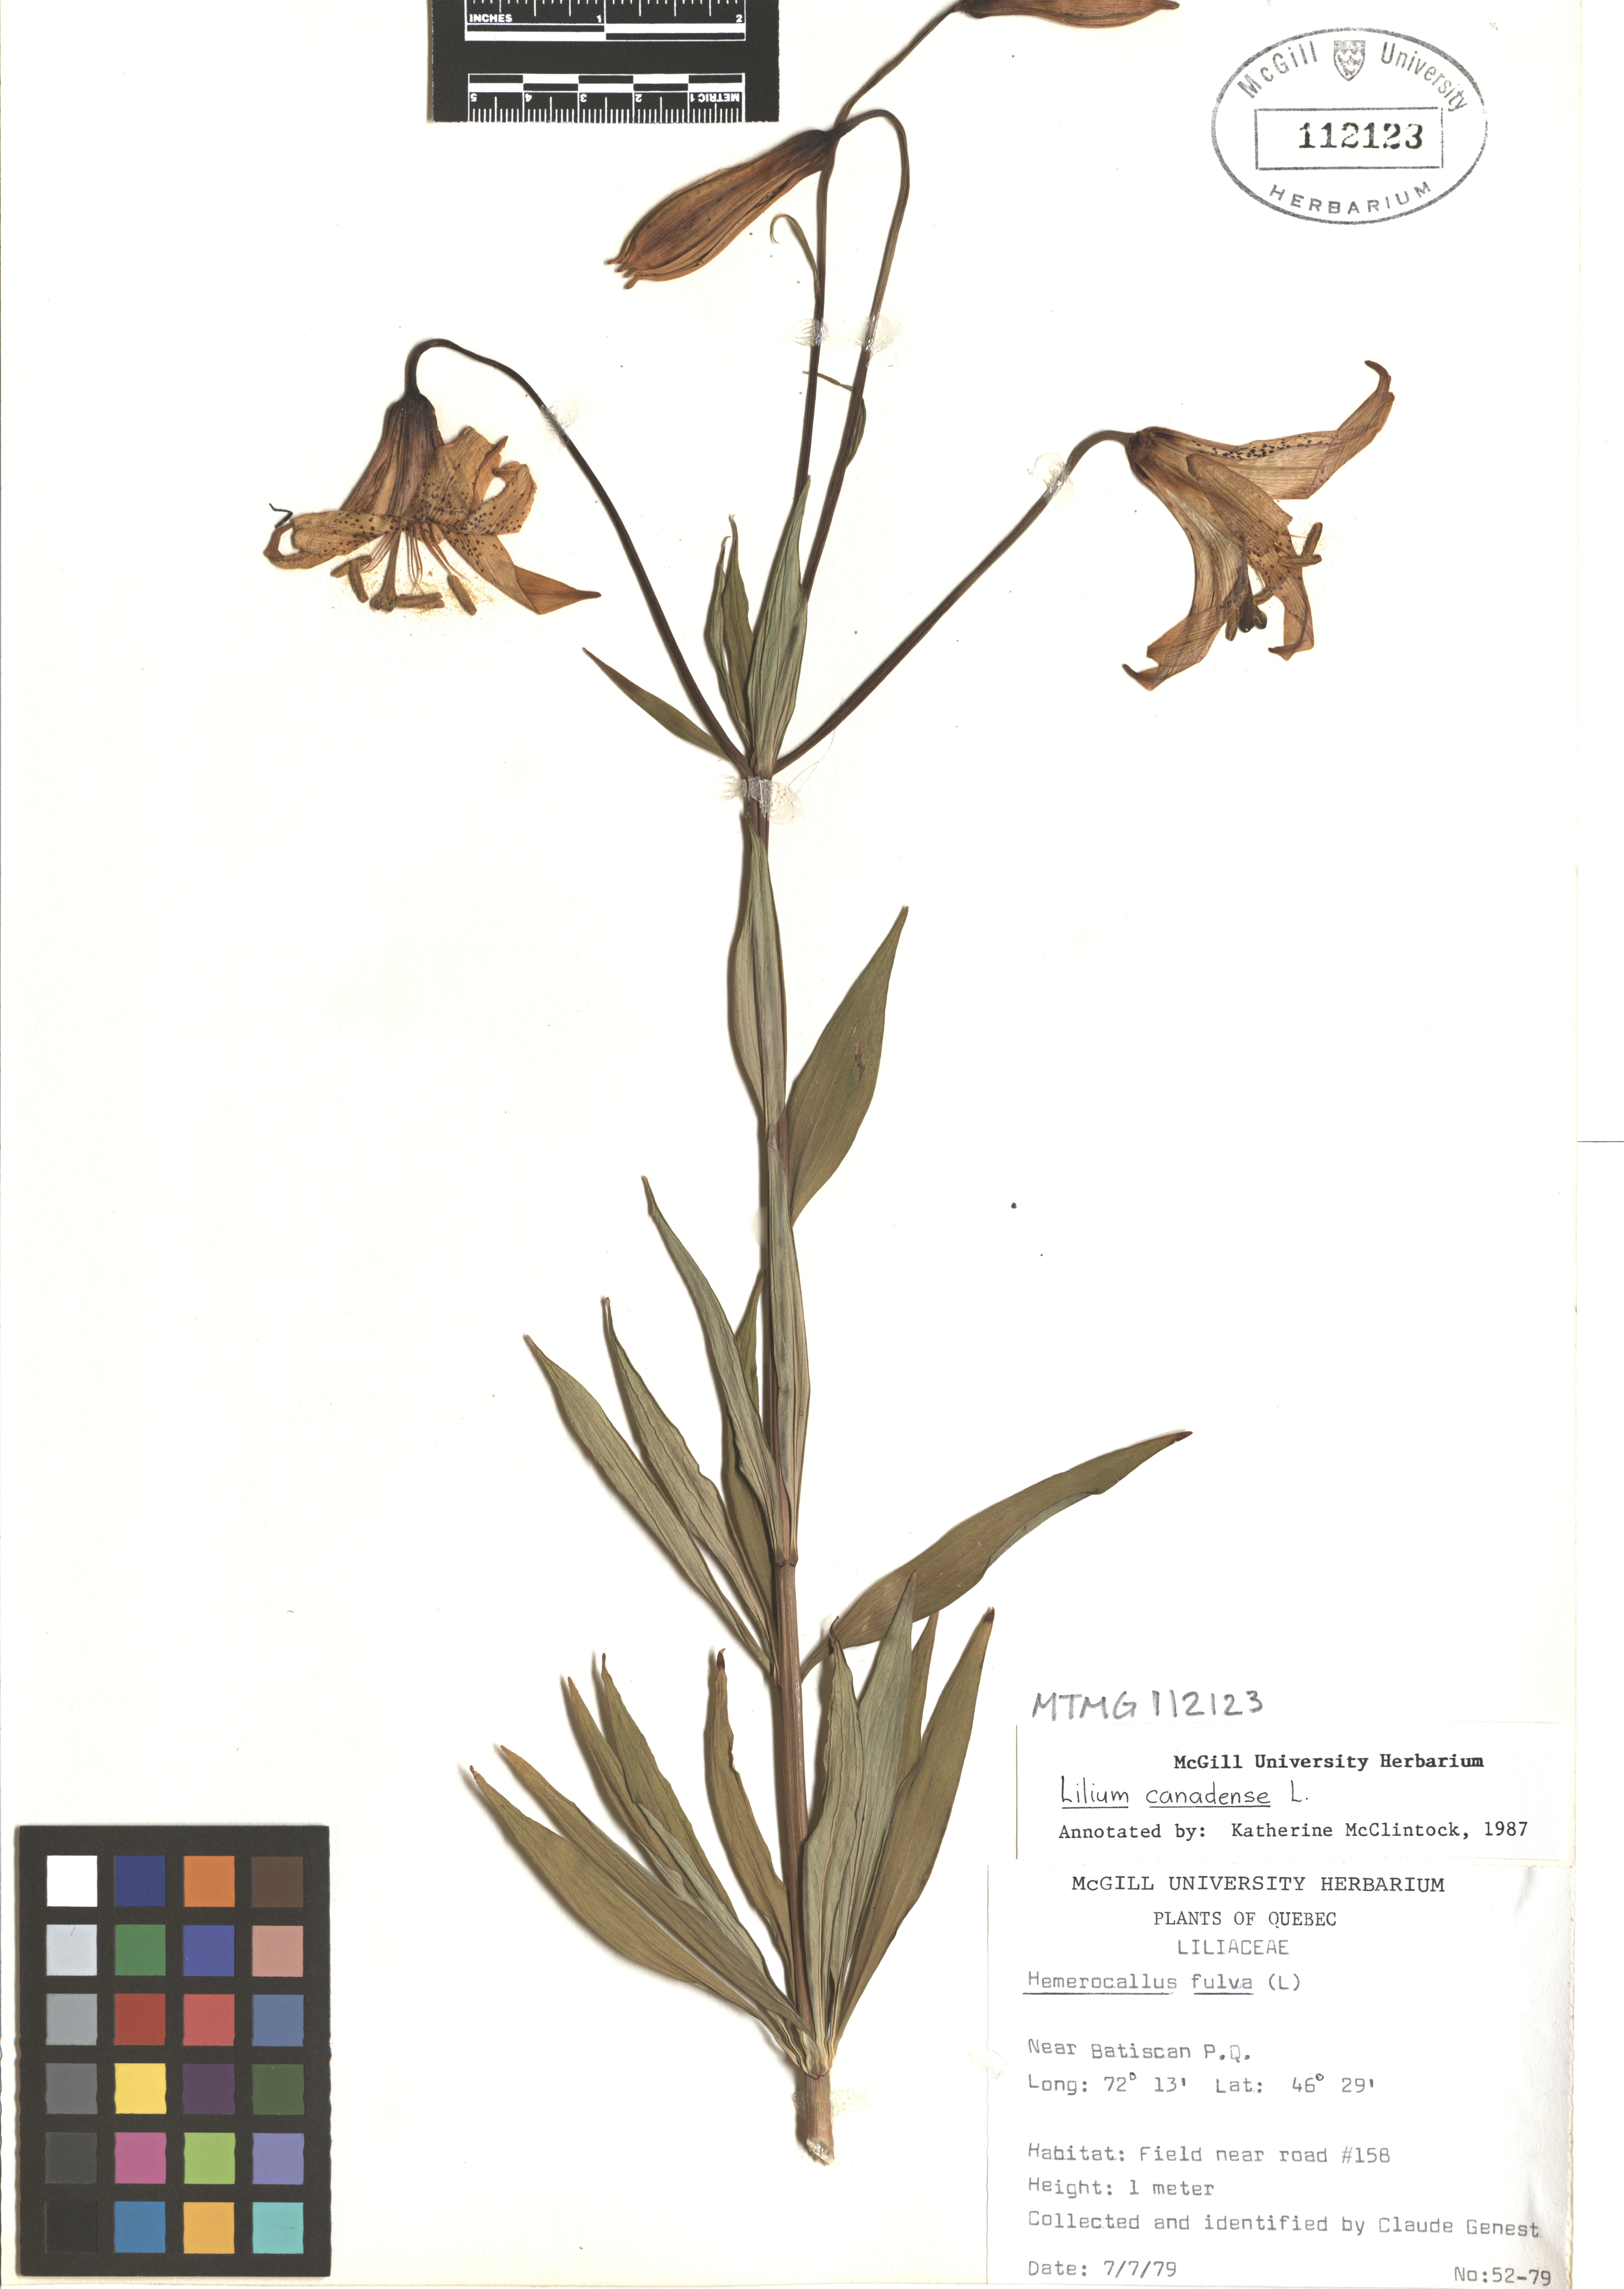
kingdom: Plantae
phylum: Tracheophyta
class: Liliopsida
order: Liliales
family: Liliaceae
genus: Lilium
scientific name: Lilium canadense
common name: Canada lily
